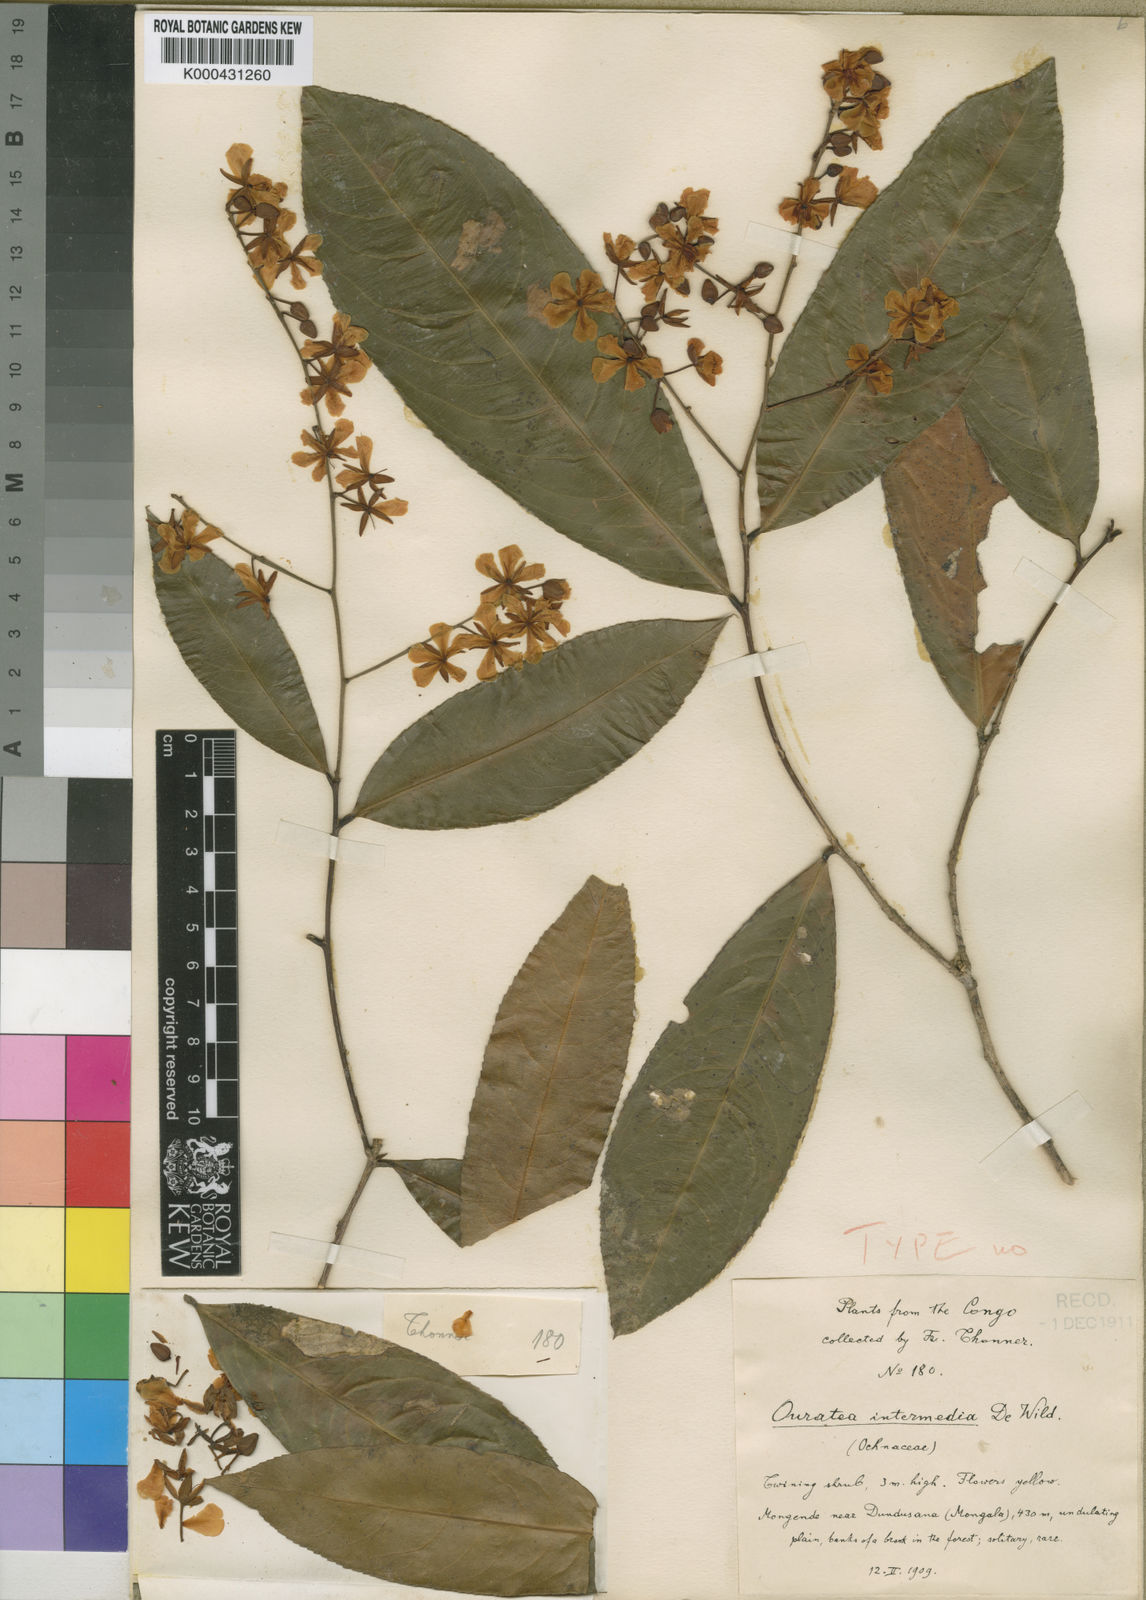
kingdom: Plantae
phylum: Tracheophyta
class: Magnoliopsida
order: Malpighiales
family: Ochnaceae
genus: Campylospermum
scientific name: Campylospermum reticulatum
